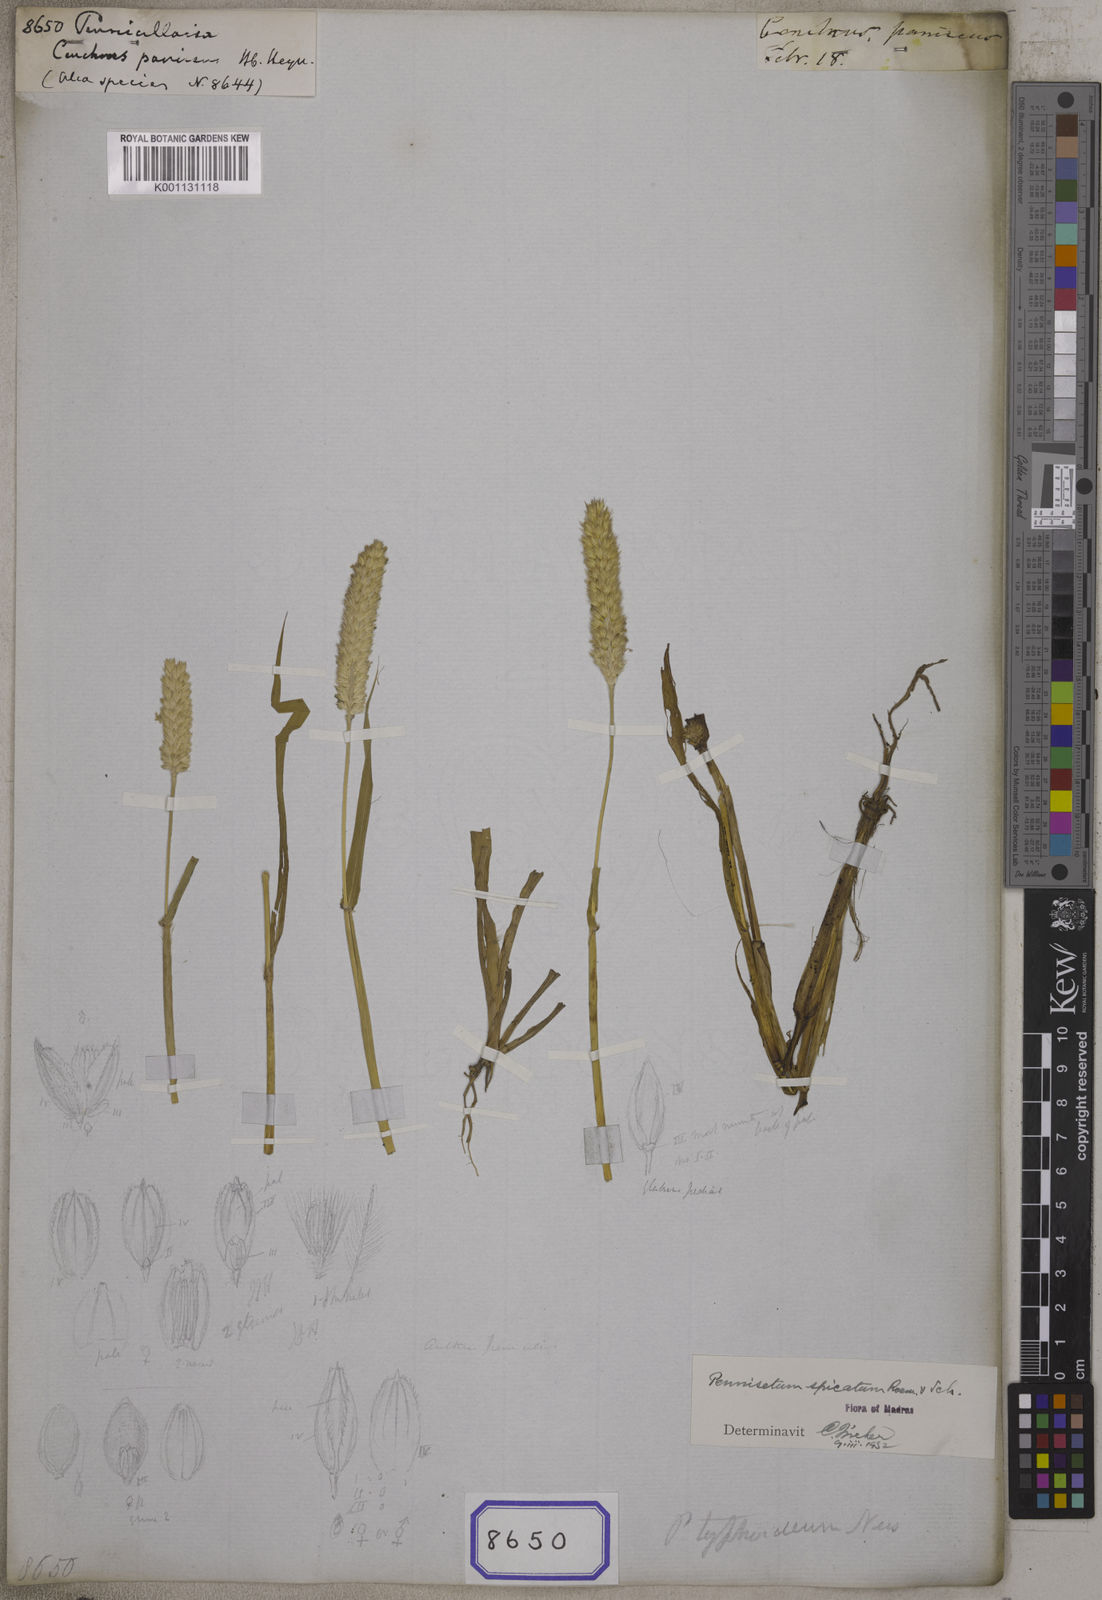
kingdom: Plantae
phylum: Tracheophyta
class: Liliopsida
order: Poales
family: Poaceae
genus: Cenchrus
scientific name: Cenchrus
